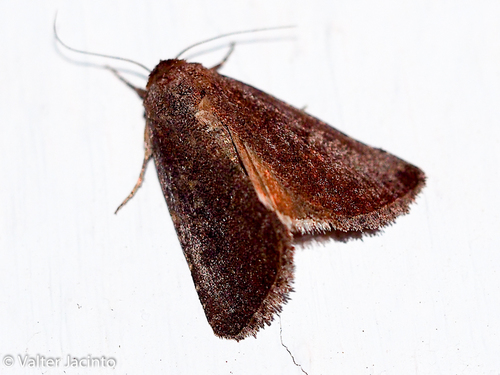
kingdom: Animalia
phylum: Arthropoda
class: Insecta
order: Lepidoptera
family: Noctuidae
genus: Condica
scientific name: Condica viscosa
